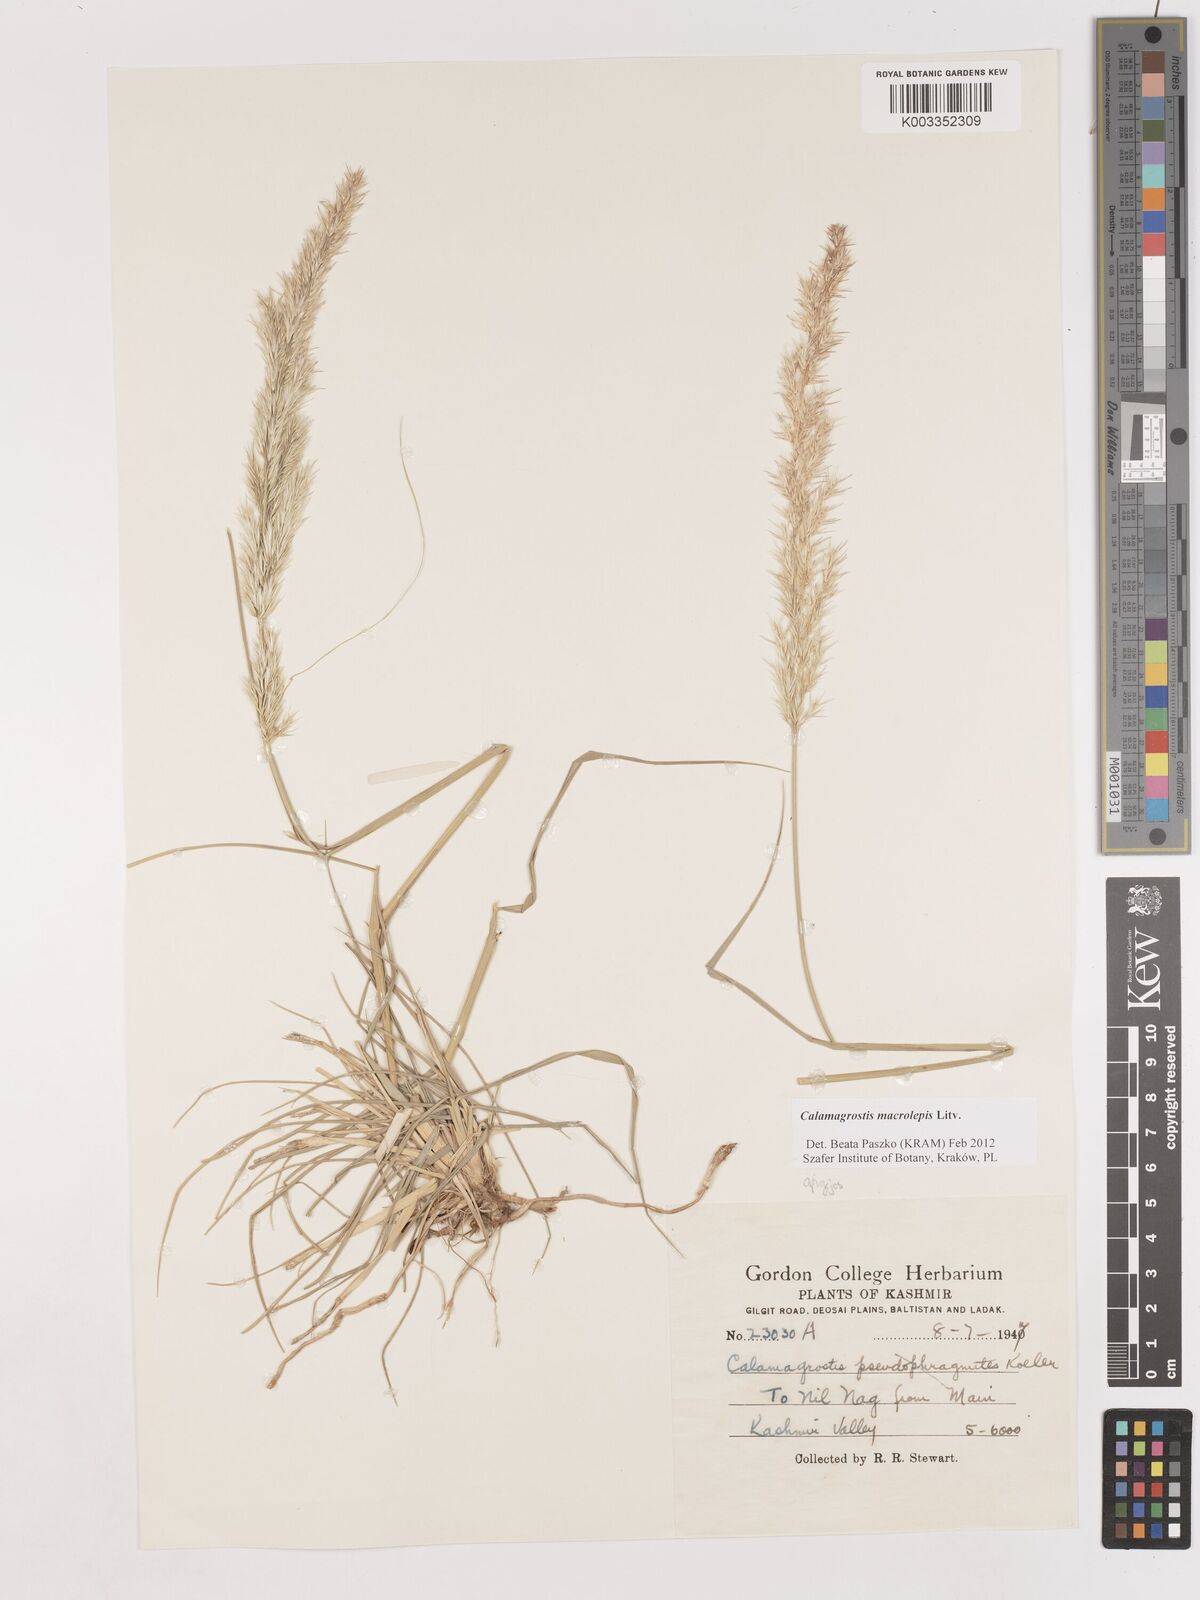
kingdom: Plantae
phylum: Tracheophyta
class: Liliopsida
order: Poales
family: Poaceae
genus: Calamagrostis
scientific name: Calamagrostis epigejos
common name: Wood small-reed
